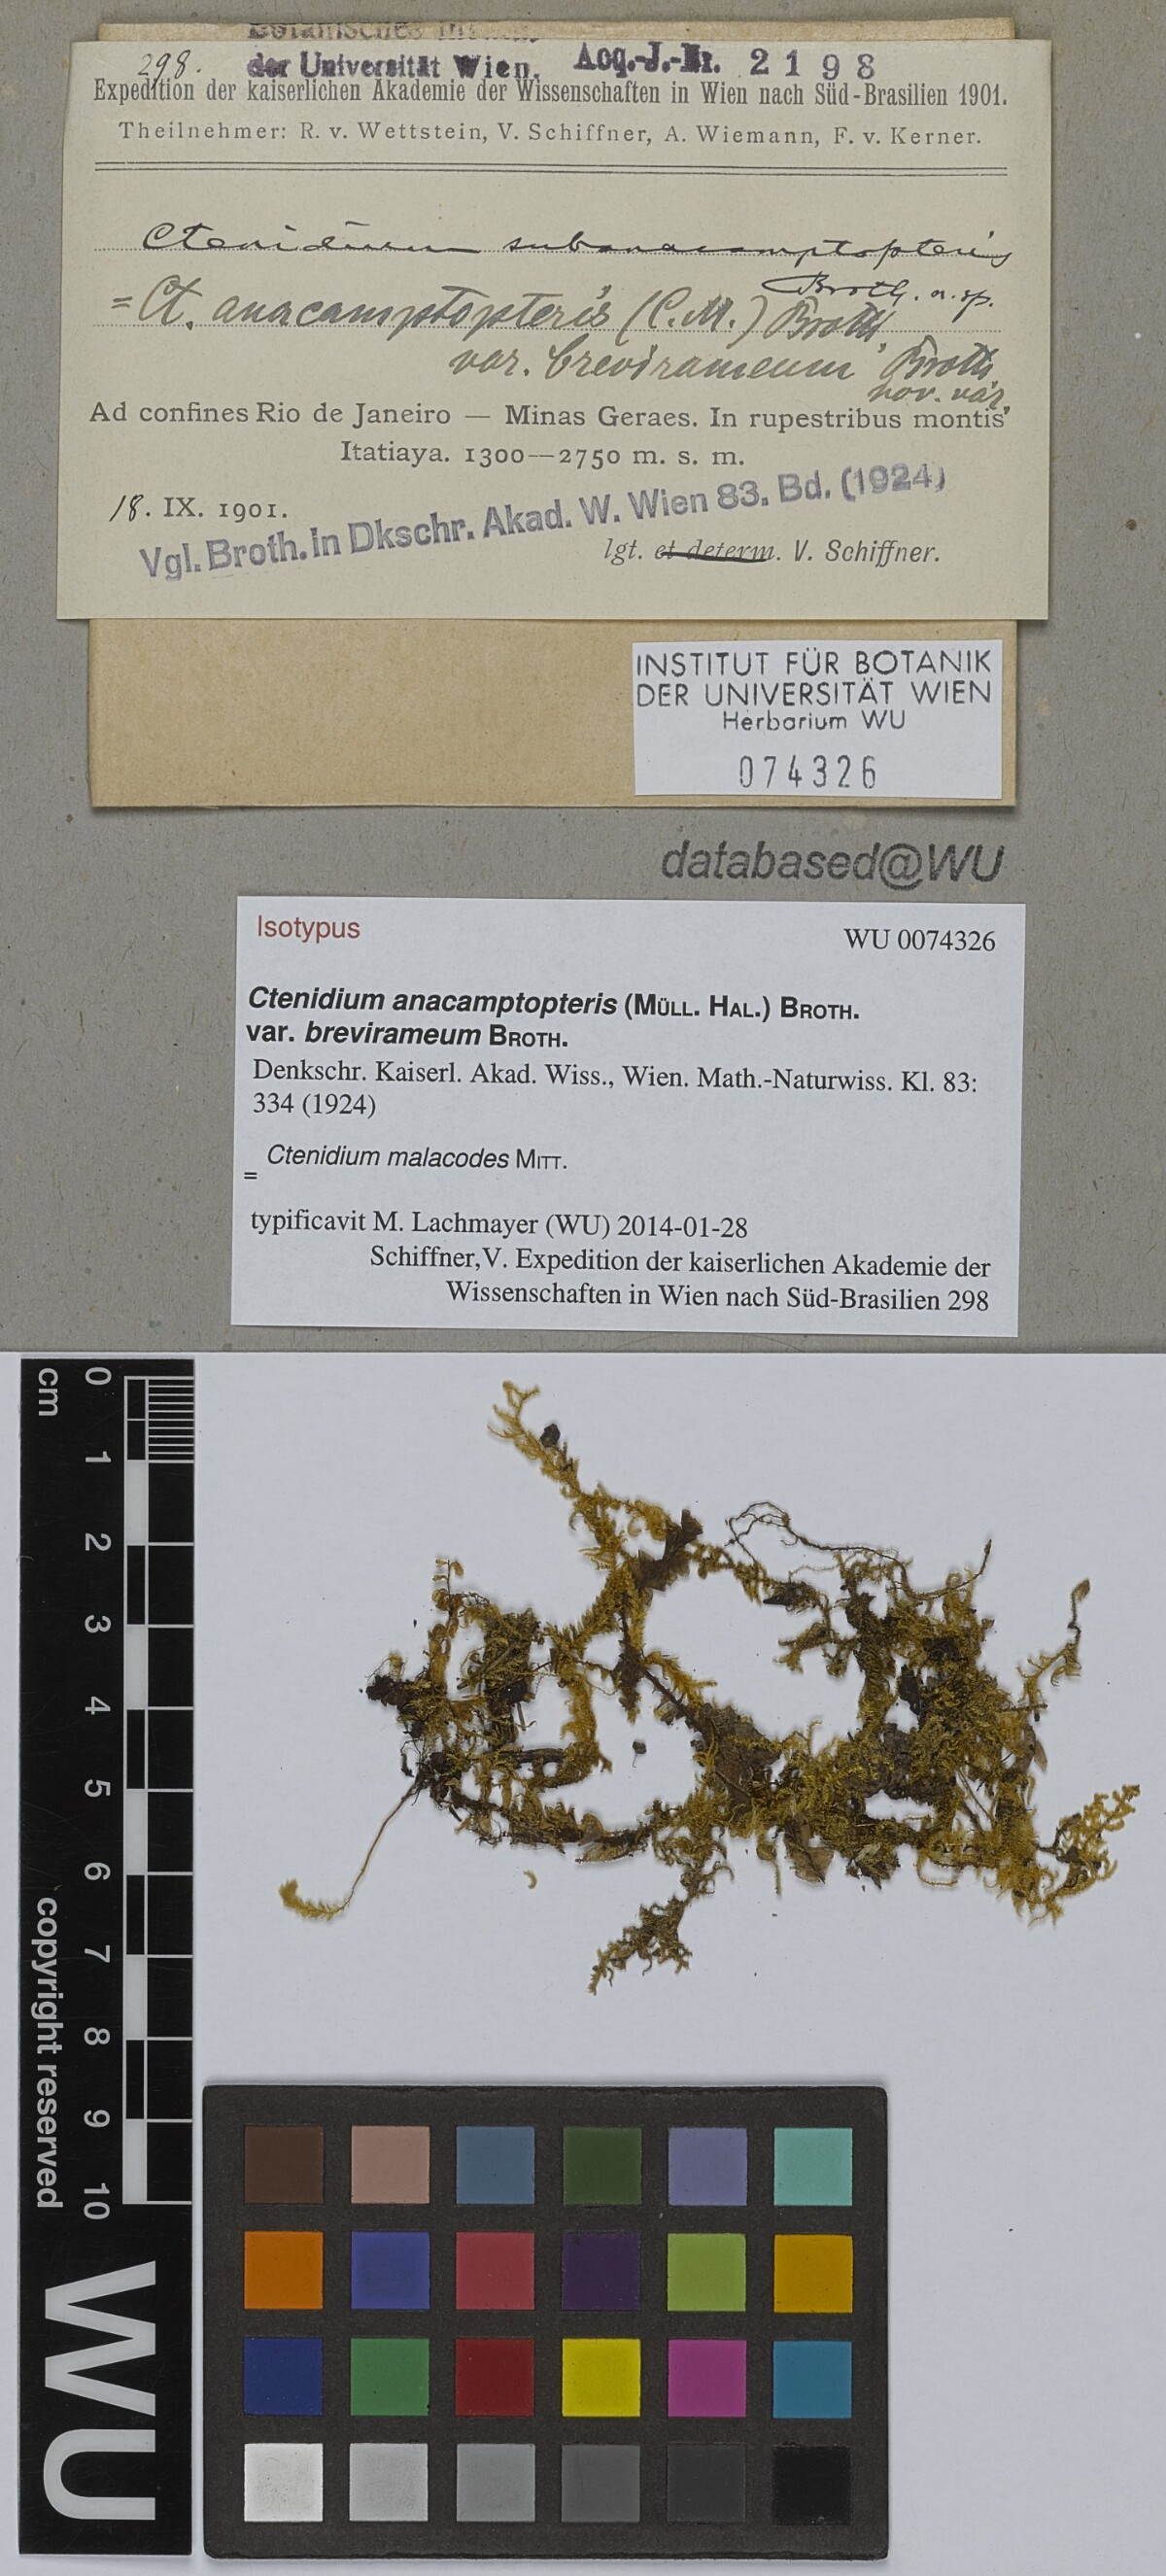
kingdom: Plantae
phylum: Bryophyta
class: Bryopsida
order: Hypnales
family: Myuriaceae
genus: Ctenidium
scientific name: Ctenidium malacodes
